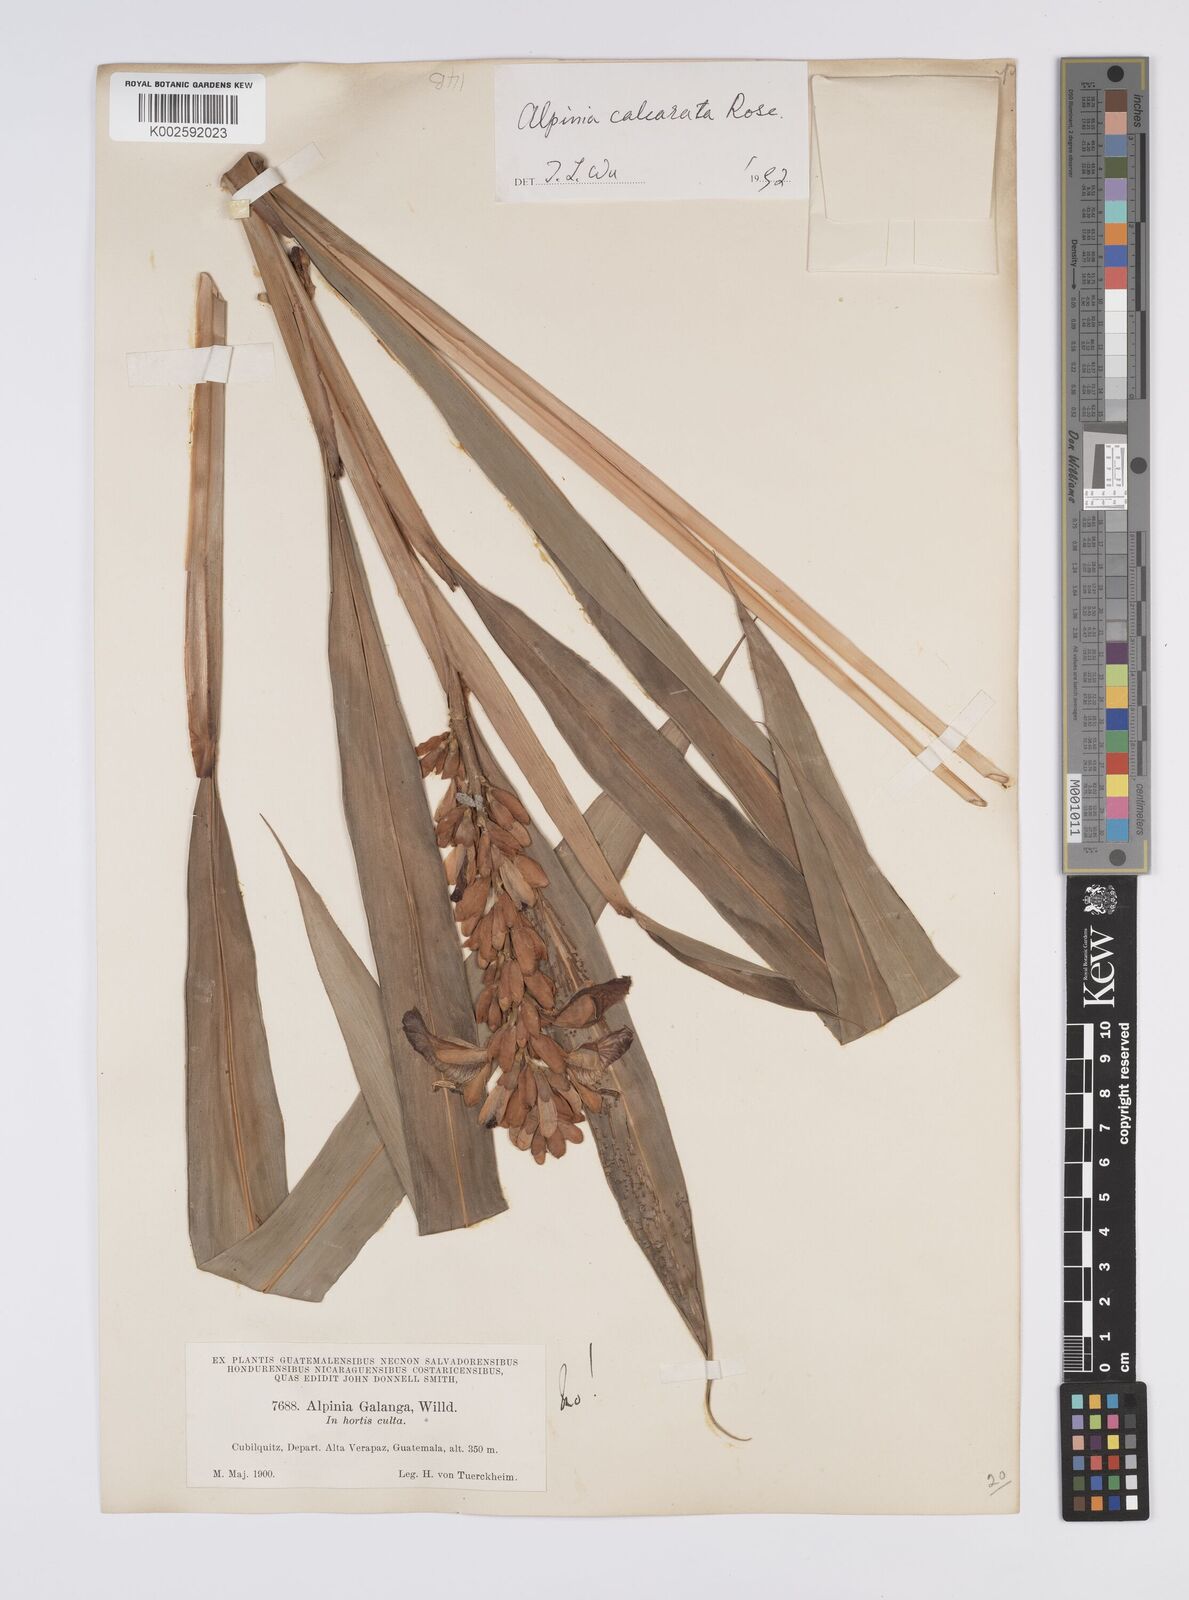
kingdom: Plantae
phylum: Tracheophyta
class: Liliopsida
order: Zingiberales
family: Zingiberaceae
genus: Alpinia
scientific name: Alpinia calcarata
